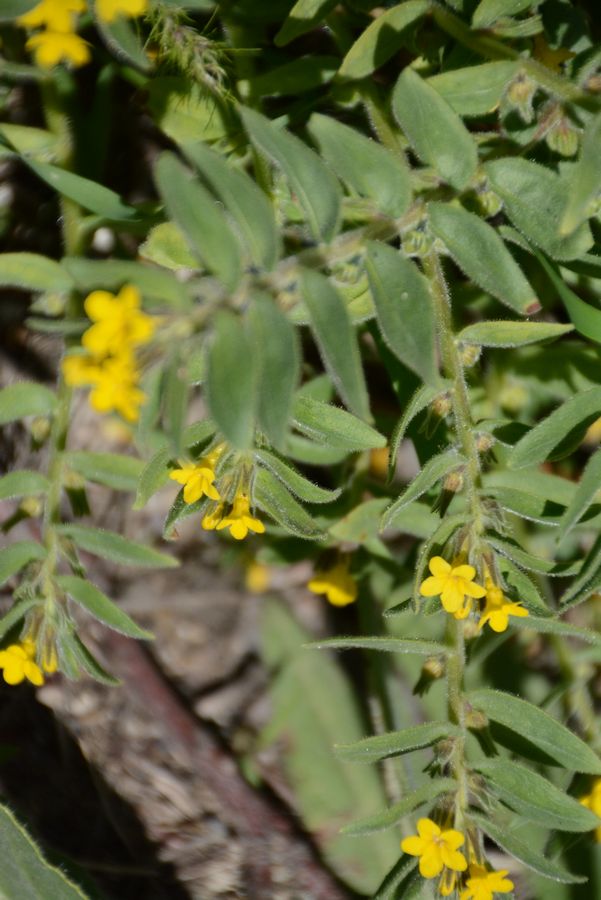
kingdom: Plantae
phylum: Tracheophyta
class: Magnoliopsida
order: Boraginales
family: Boraginaceae
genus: Alkanna
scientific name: Alkanna orientalis
